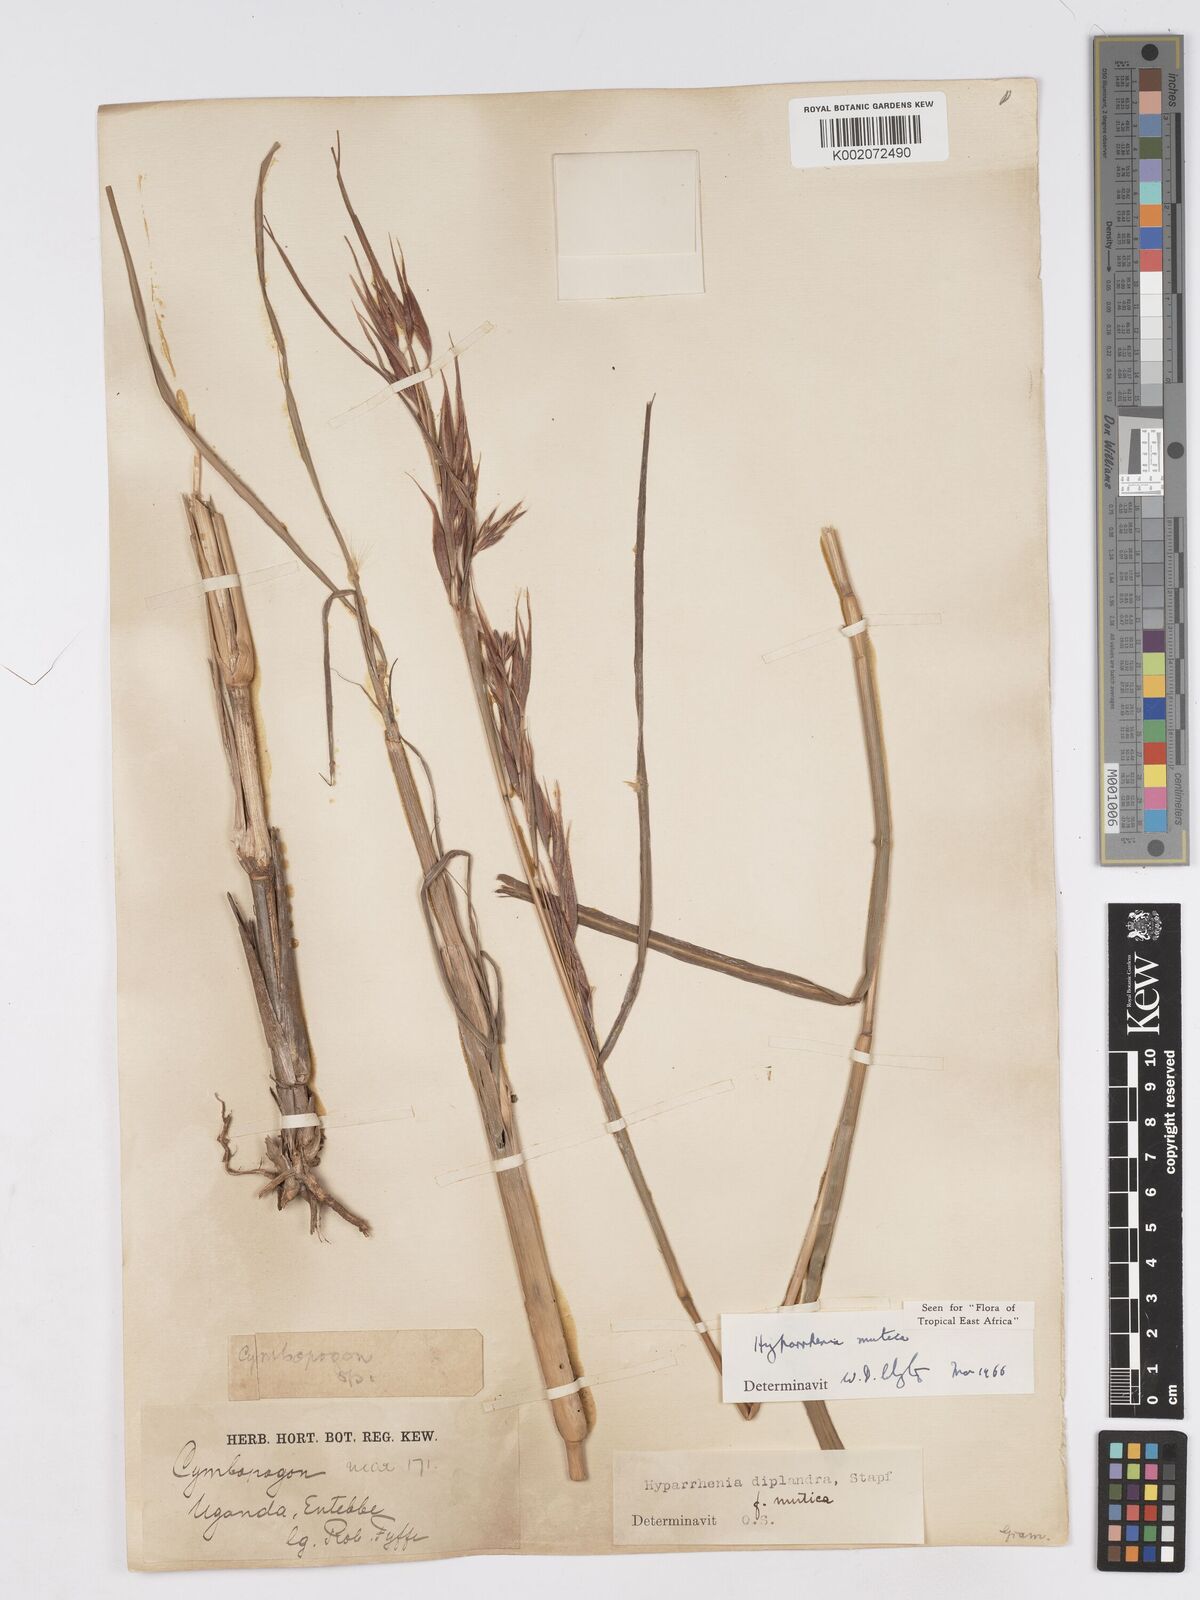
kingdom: Plantae
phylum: Tracheophyta
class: Liliopsida
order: Poales
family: Poaceae
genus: Hyparrhenia
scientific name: Hyparrhenia diplandra
